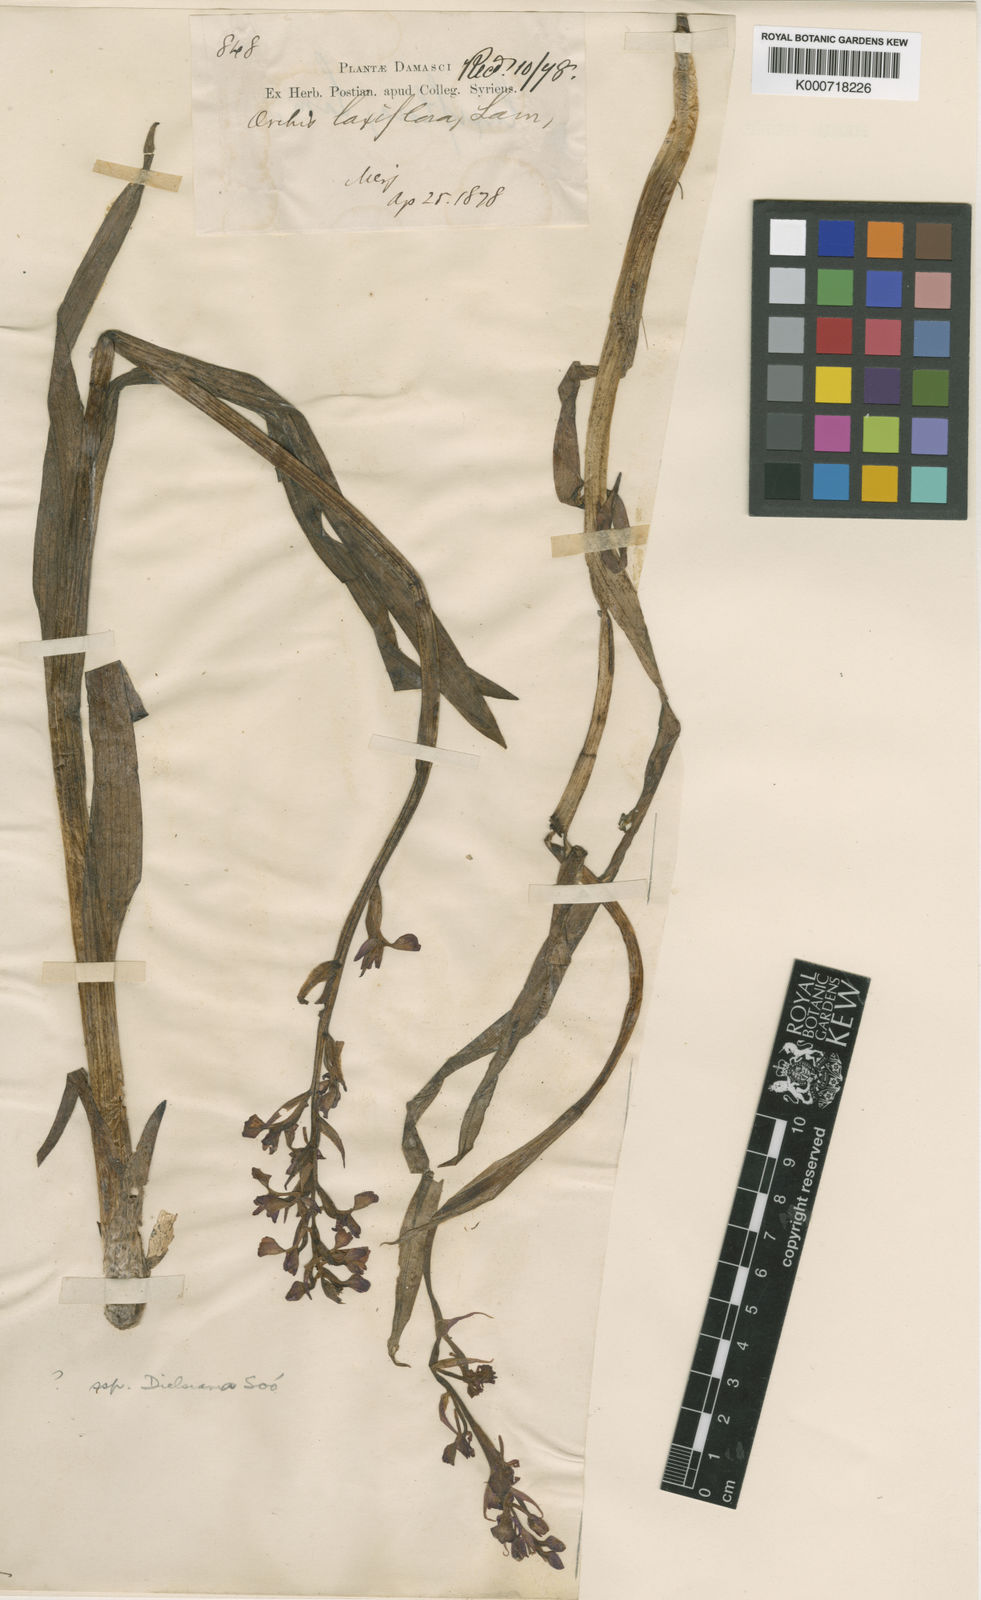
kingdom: Plantae
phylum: Tracheophyta
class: Liliopsida
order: Asparagales
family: Orchidaceae
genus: Anacamptis
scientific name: Anacamptis palustris
